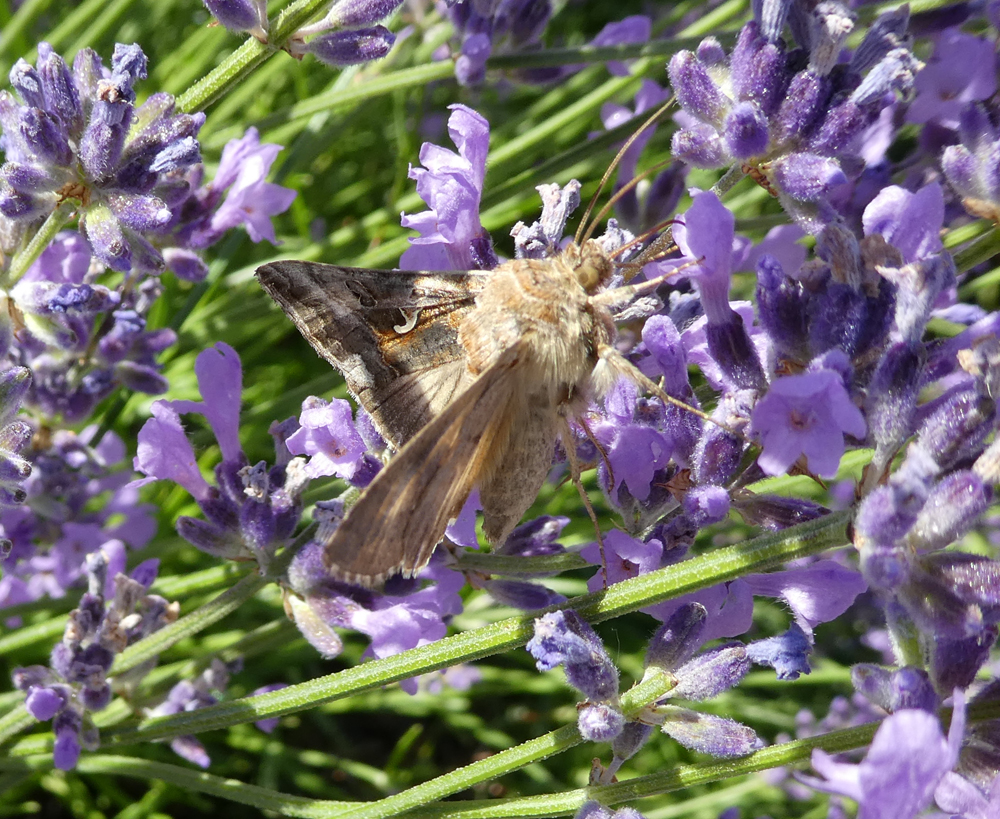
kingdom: Animalia
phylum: Arthropoda
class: Insecta
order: Lepidoptera
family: Noctuidae
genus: Autographa
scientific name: Autographa gamma
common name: Silver y
